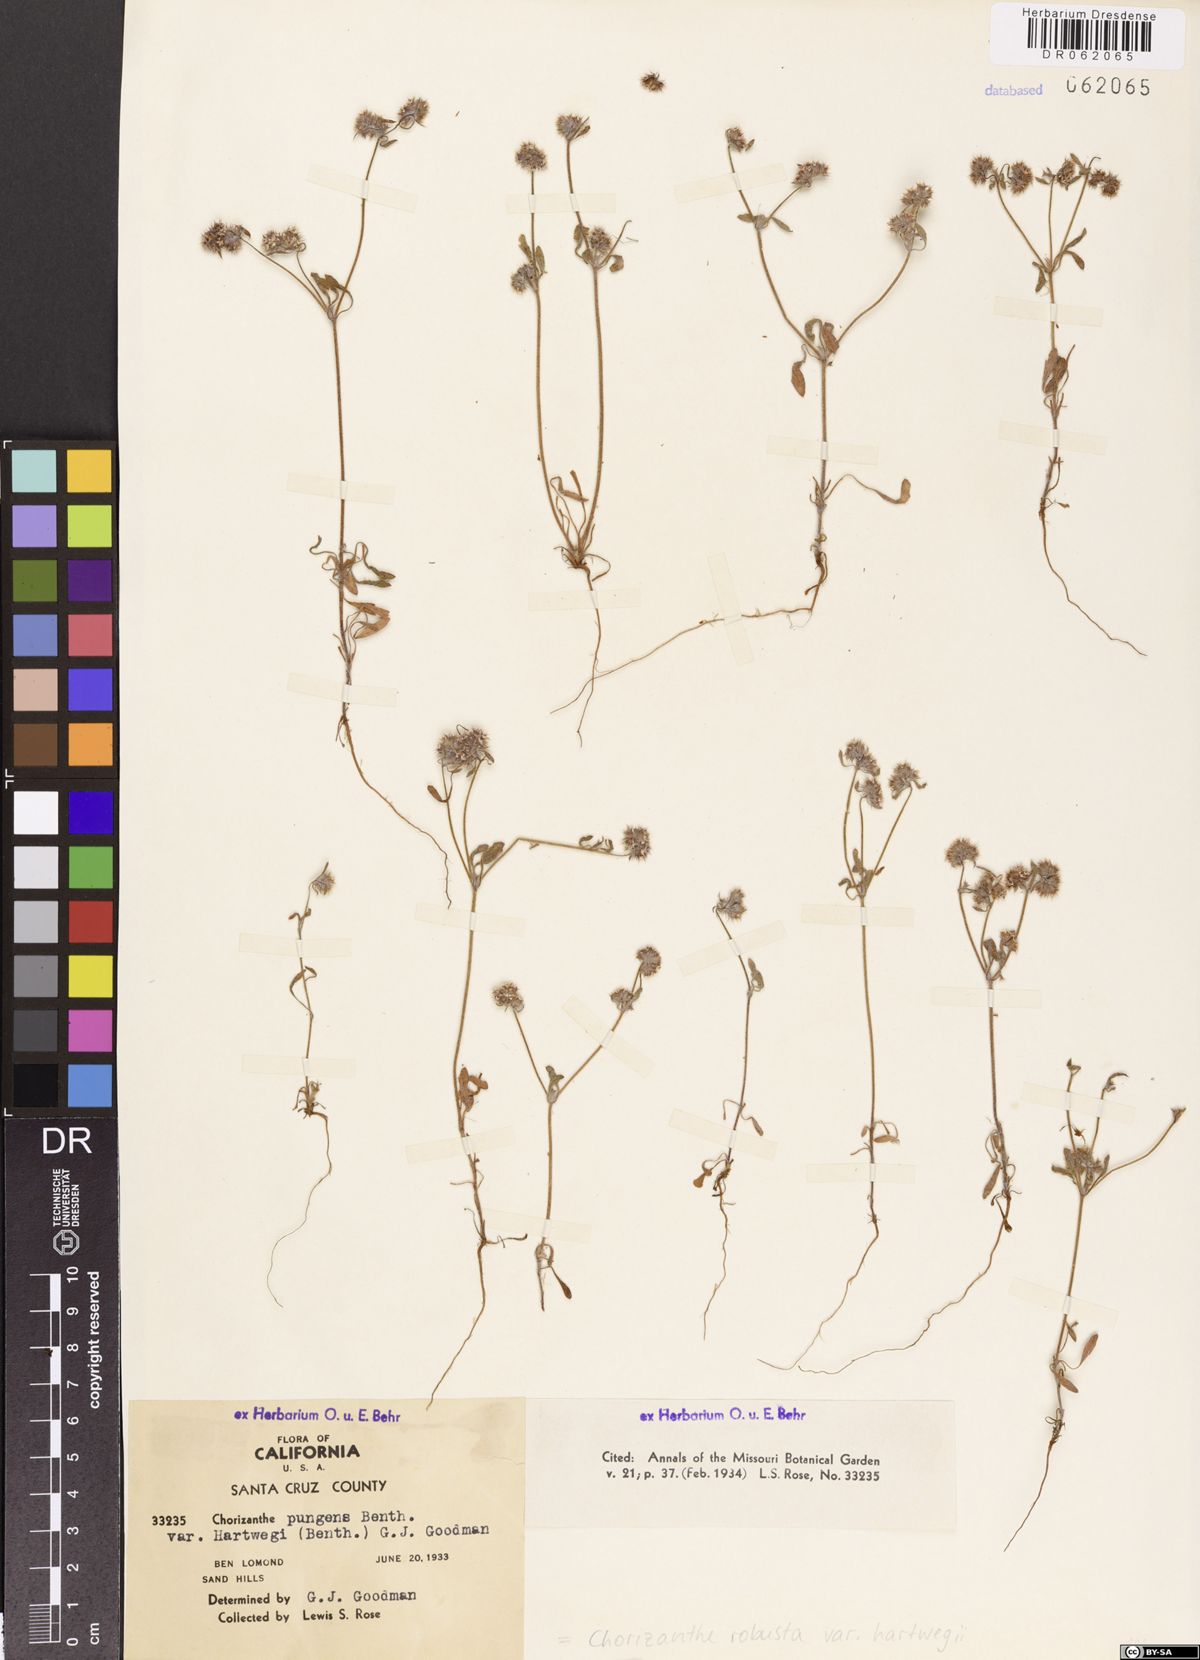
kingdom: Plantae
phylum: Tracheophyta
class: Magnoliopsida
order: Caryophyllales
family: Polygonaceae
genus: Chorizanthe
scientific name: Chorizanthe robusta
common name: Robust spineflower
